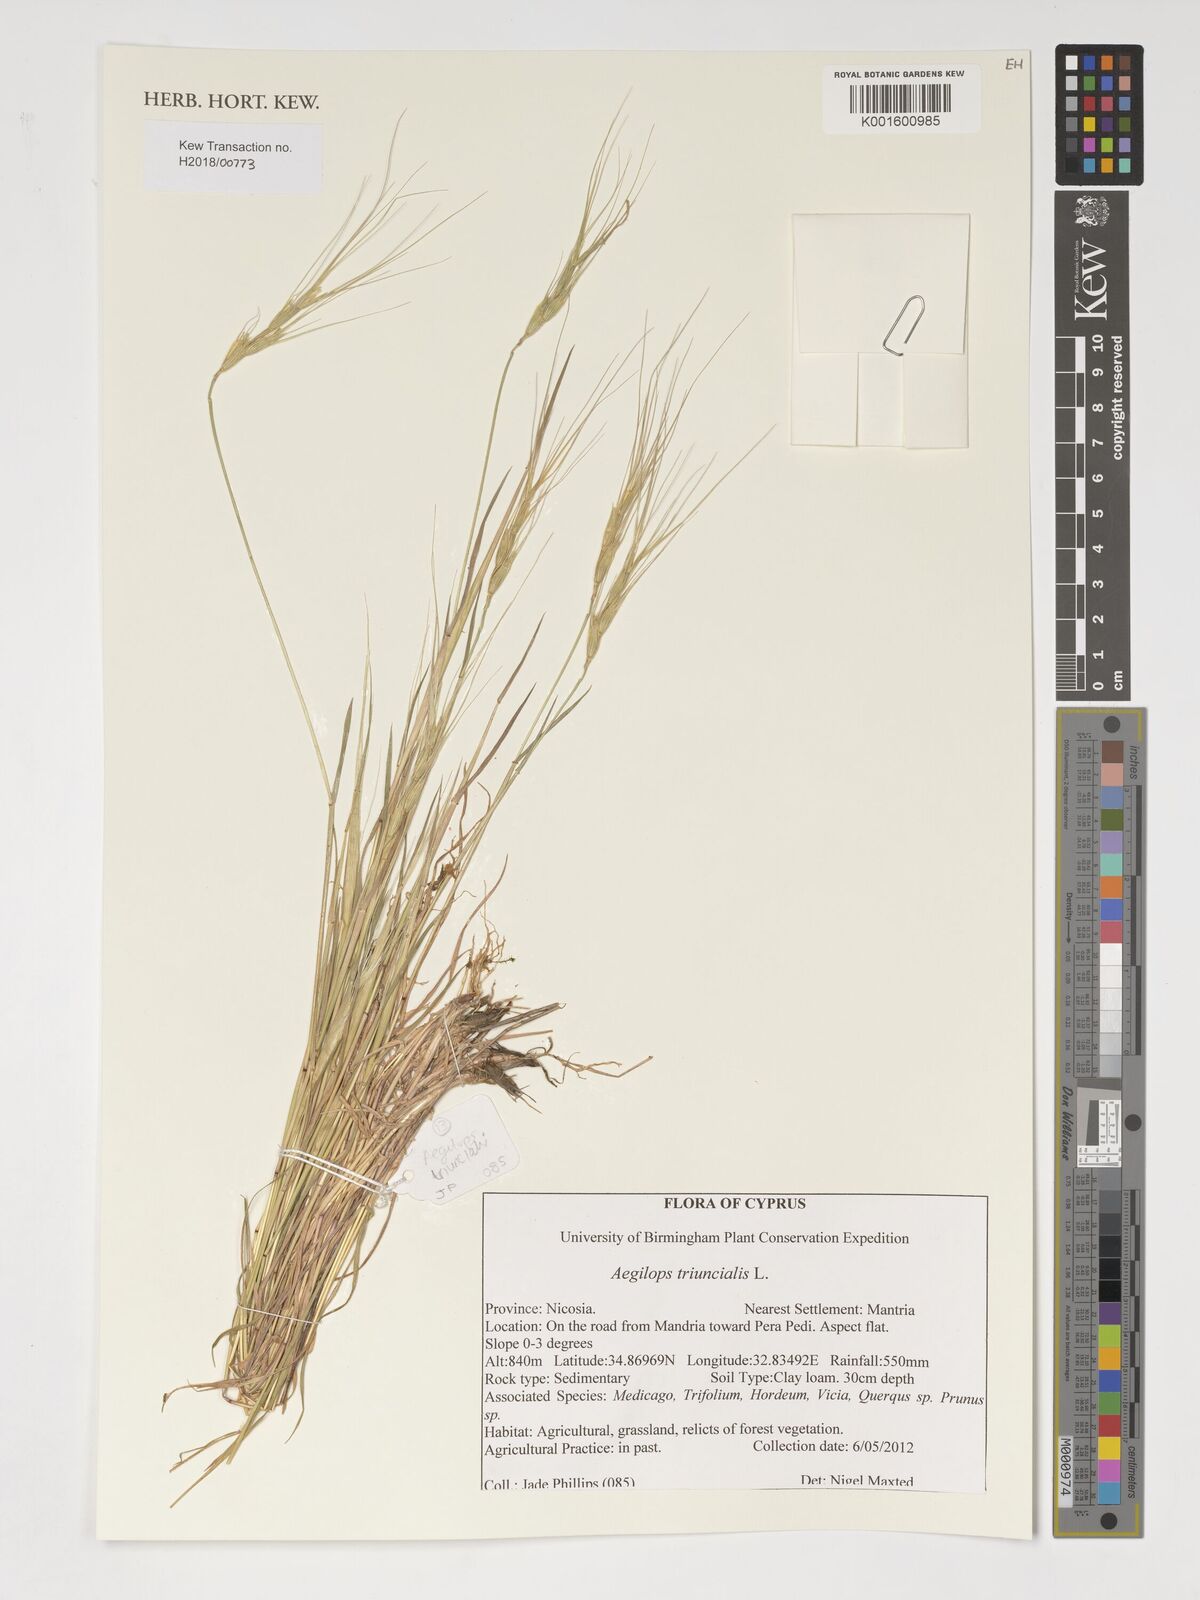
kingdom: Plantae
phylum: Tracheophyta
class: Liliopsida
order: Poales
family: Poaceae
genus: Aegilops
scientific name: Aegilops triuncialis
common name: Barb goat grass
